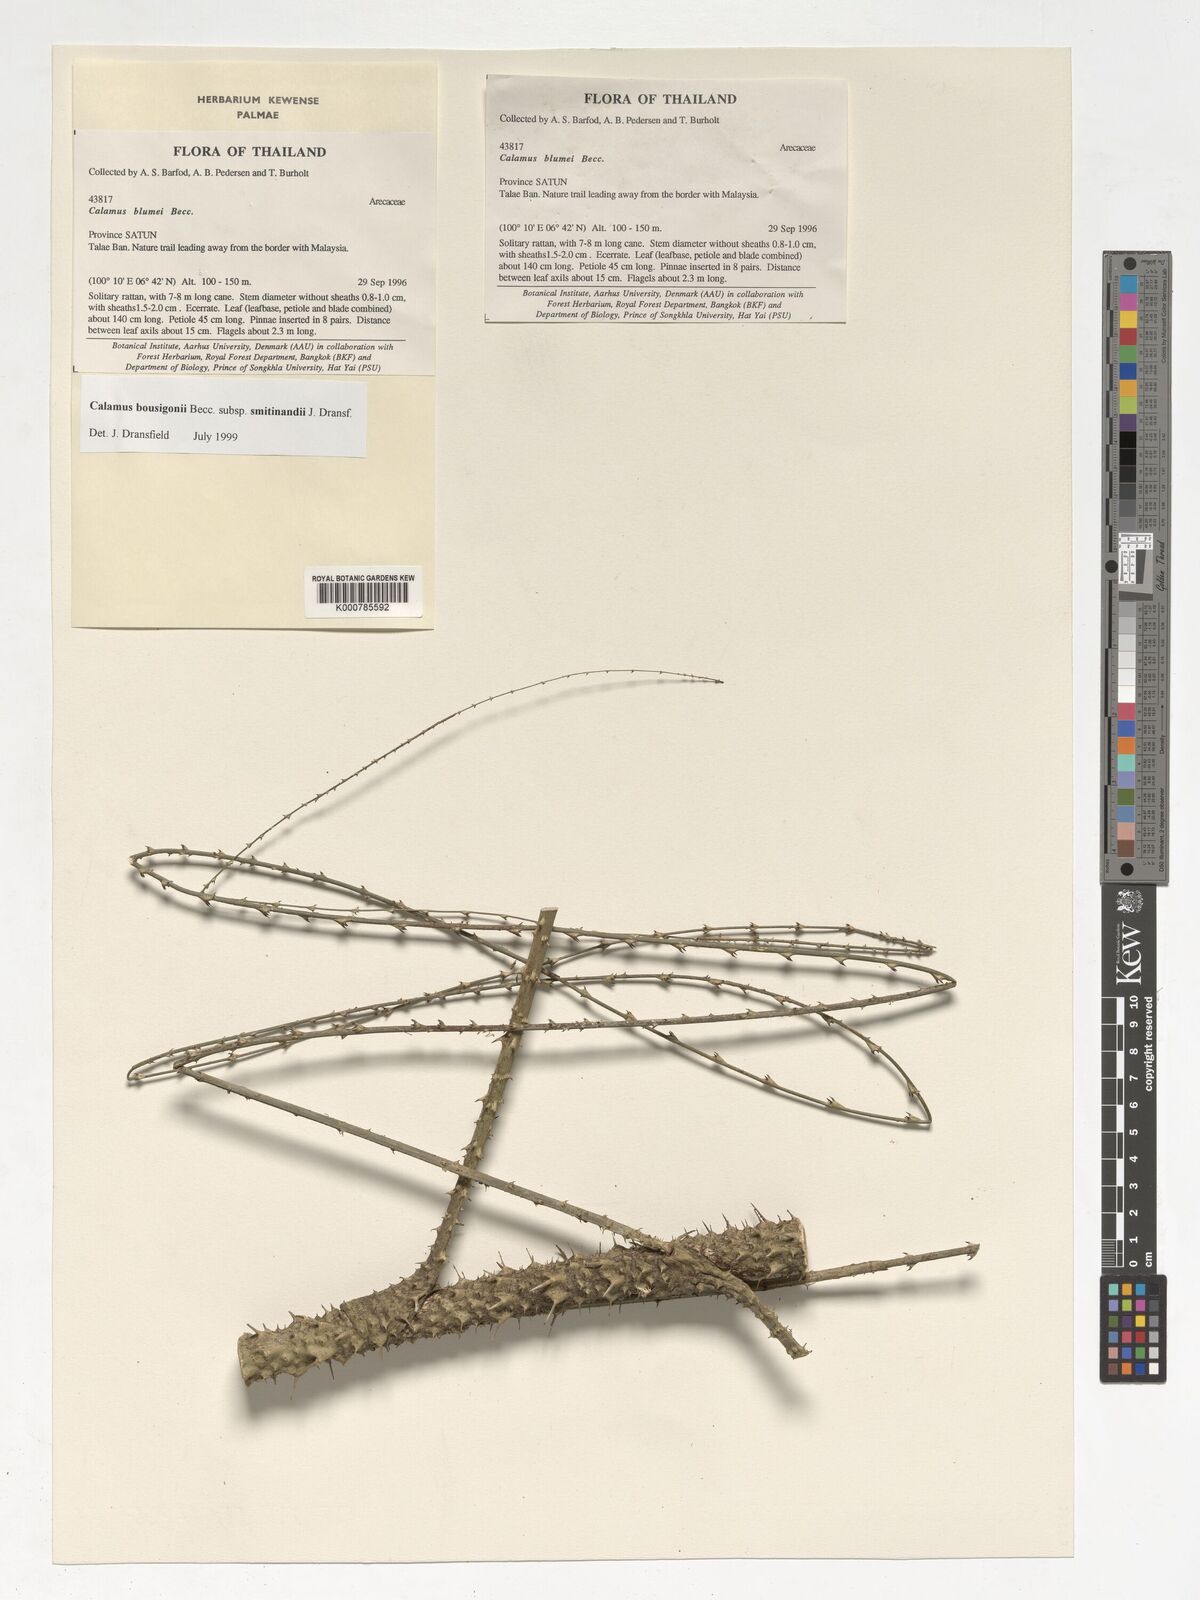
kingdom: Plantae
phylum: Tracheophyta
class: Liliopsida
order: Arecales
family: Arecaceae
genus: Calamus
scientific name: Calamus bousigonii
